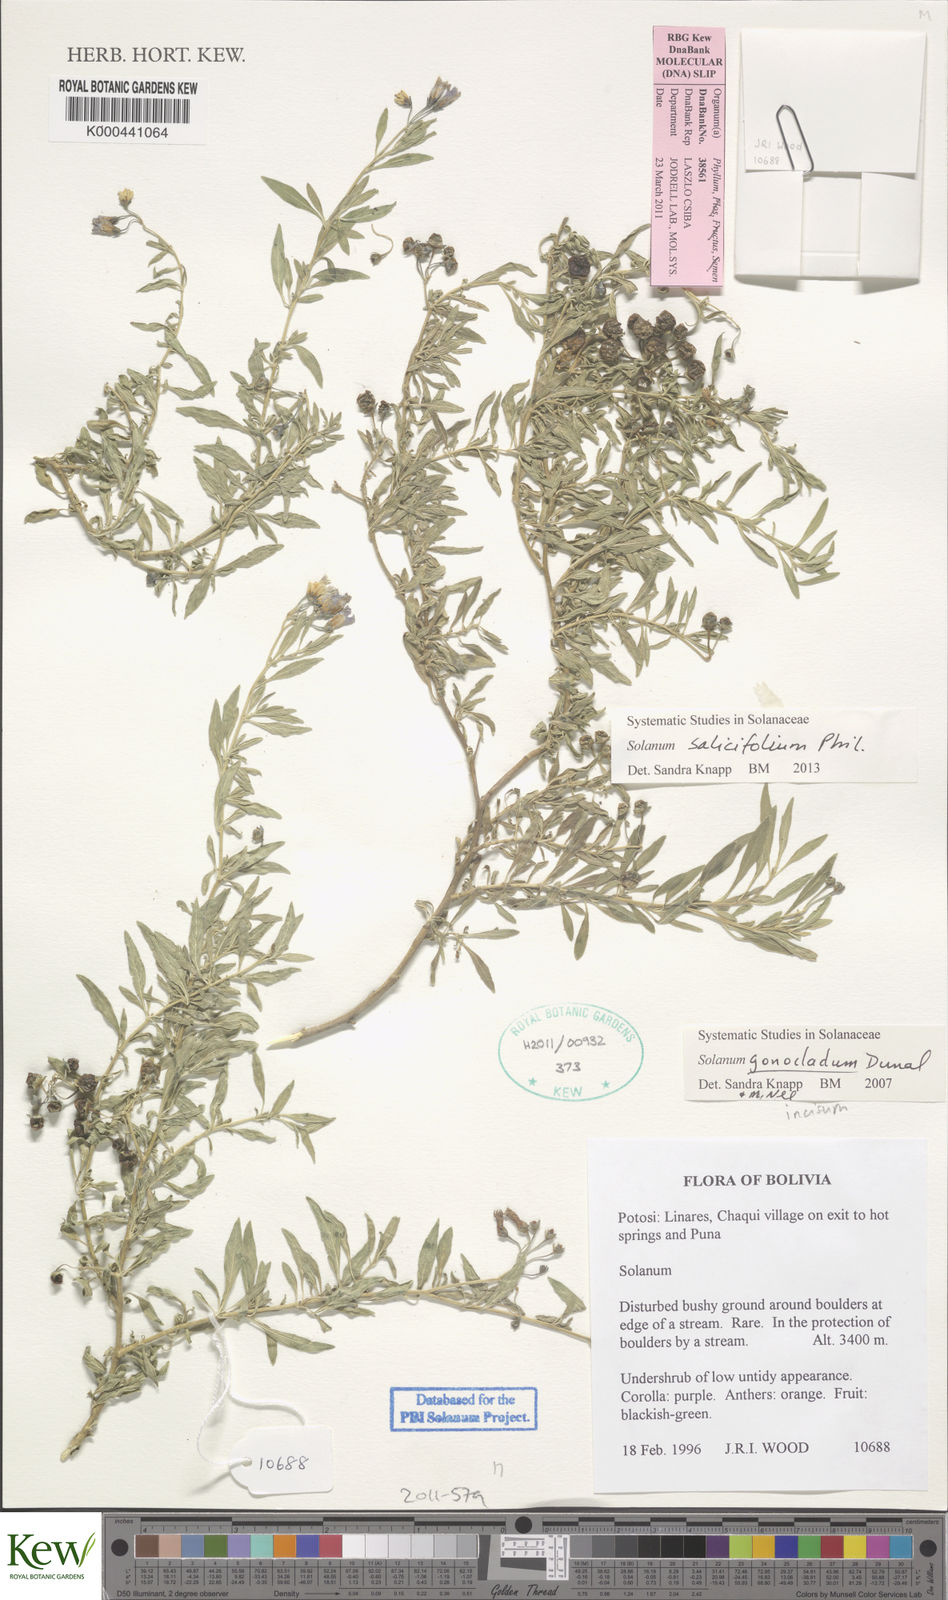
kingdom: Plantae
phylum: Tracheophyta
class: Magnoliopsida
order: Solanales
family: Solanaceae
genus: Solanum
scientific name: Solanum salicifolium
